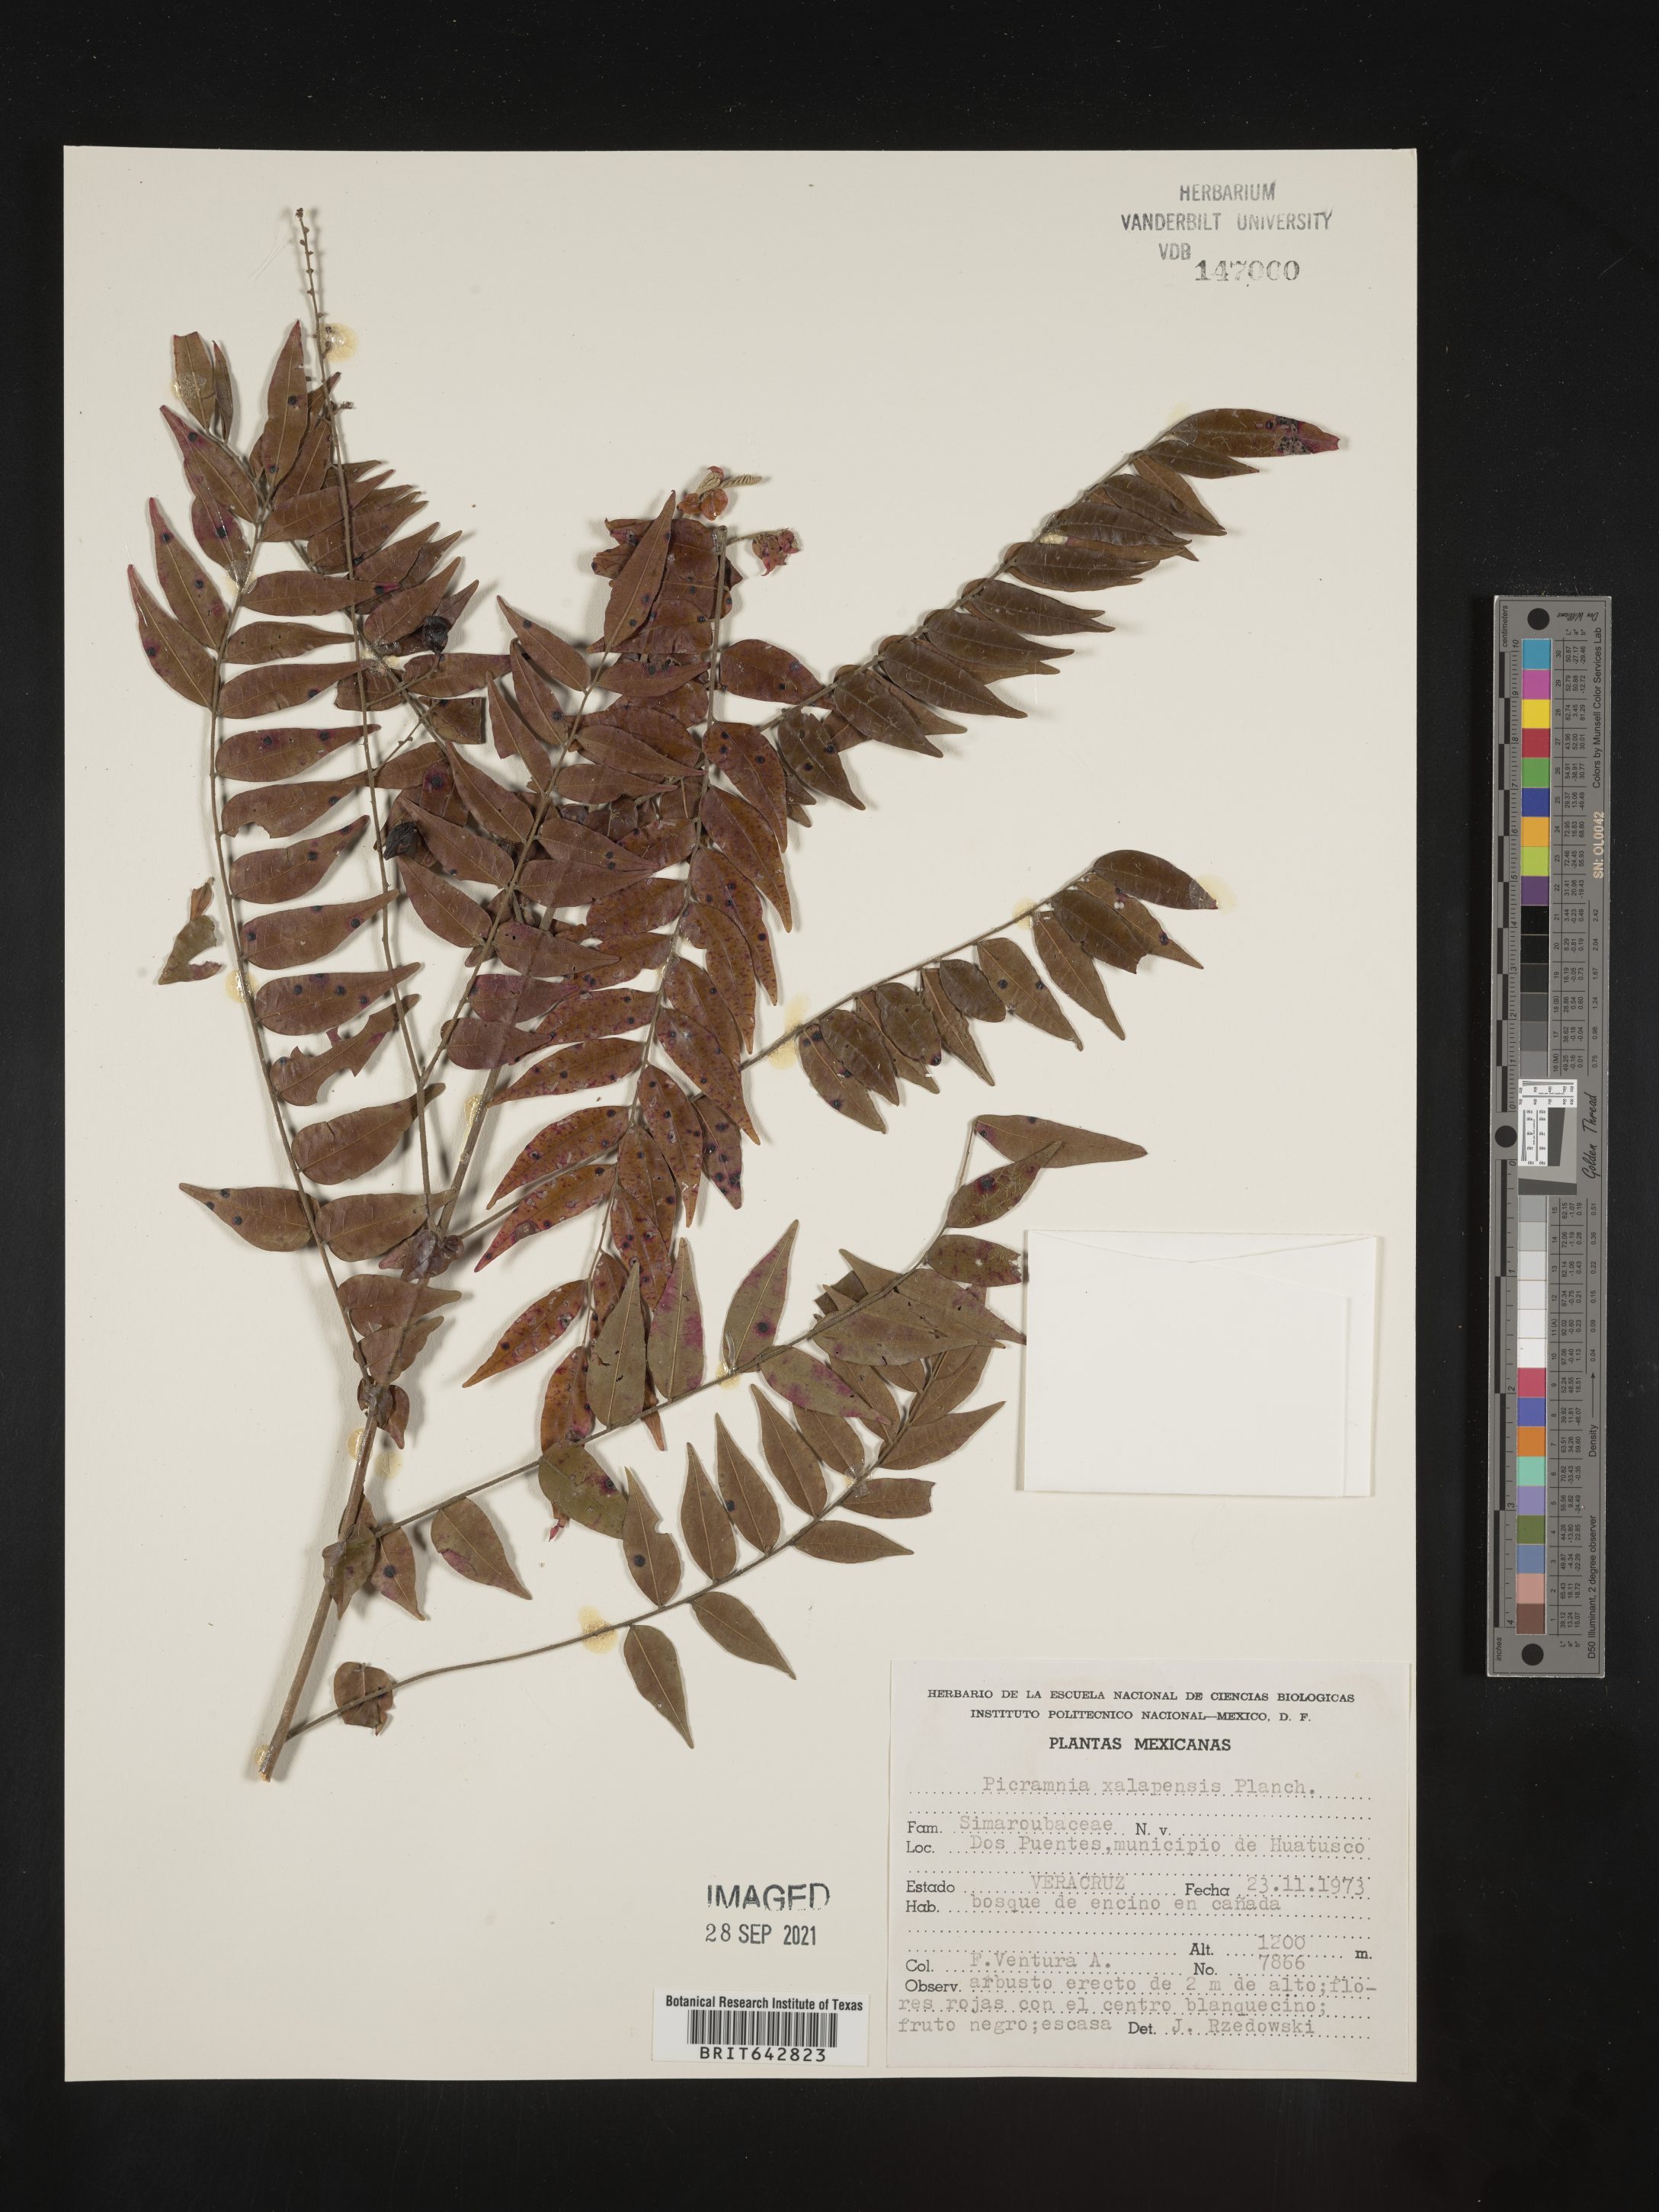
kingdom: Plantae
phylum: Tracheophyta
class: Magnoliopsida
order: Picramniales
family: Picramniaceae
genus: Picramnia
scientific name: Picramnia
